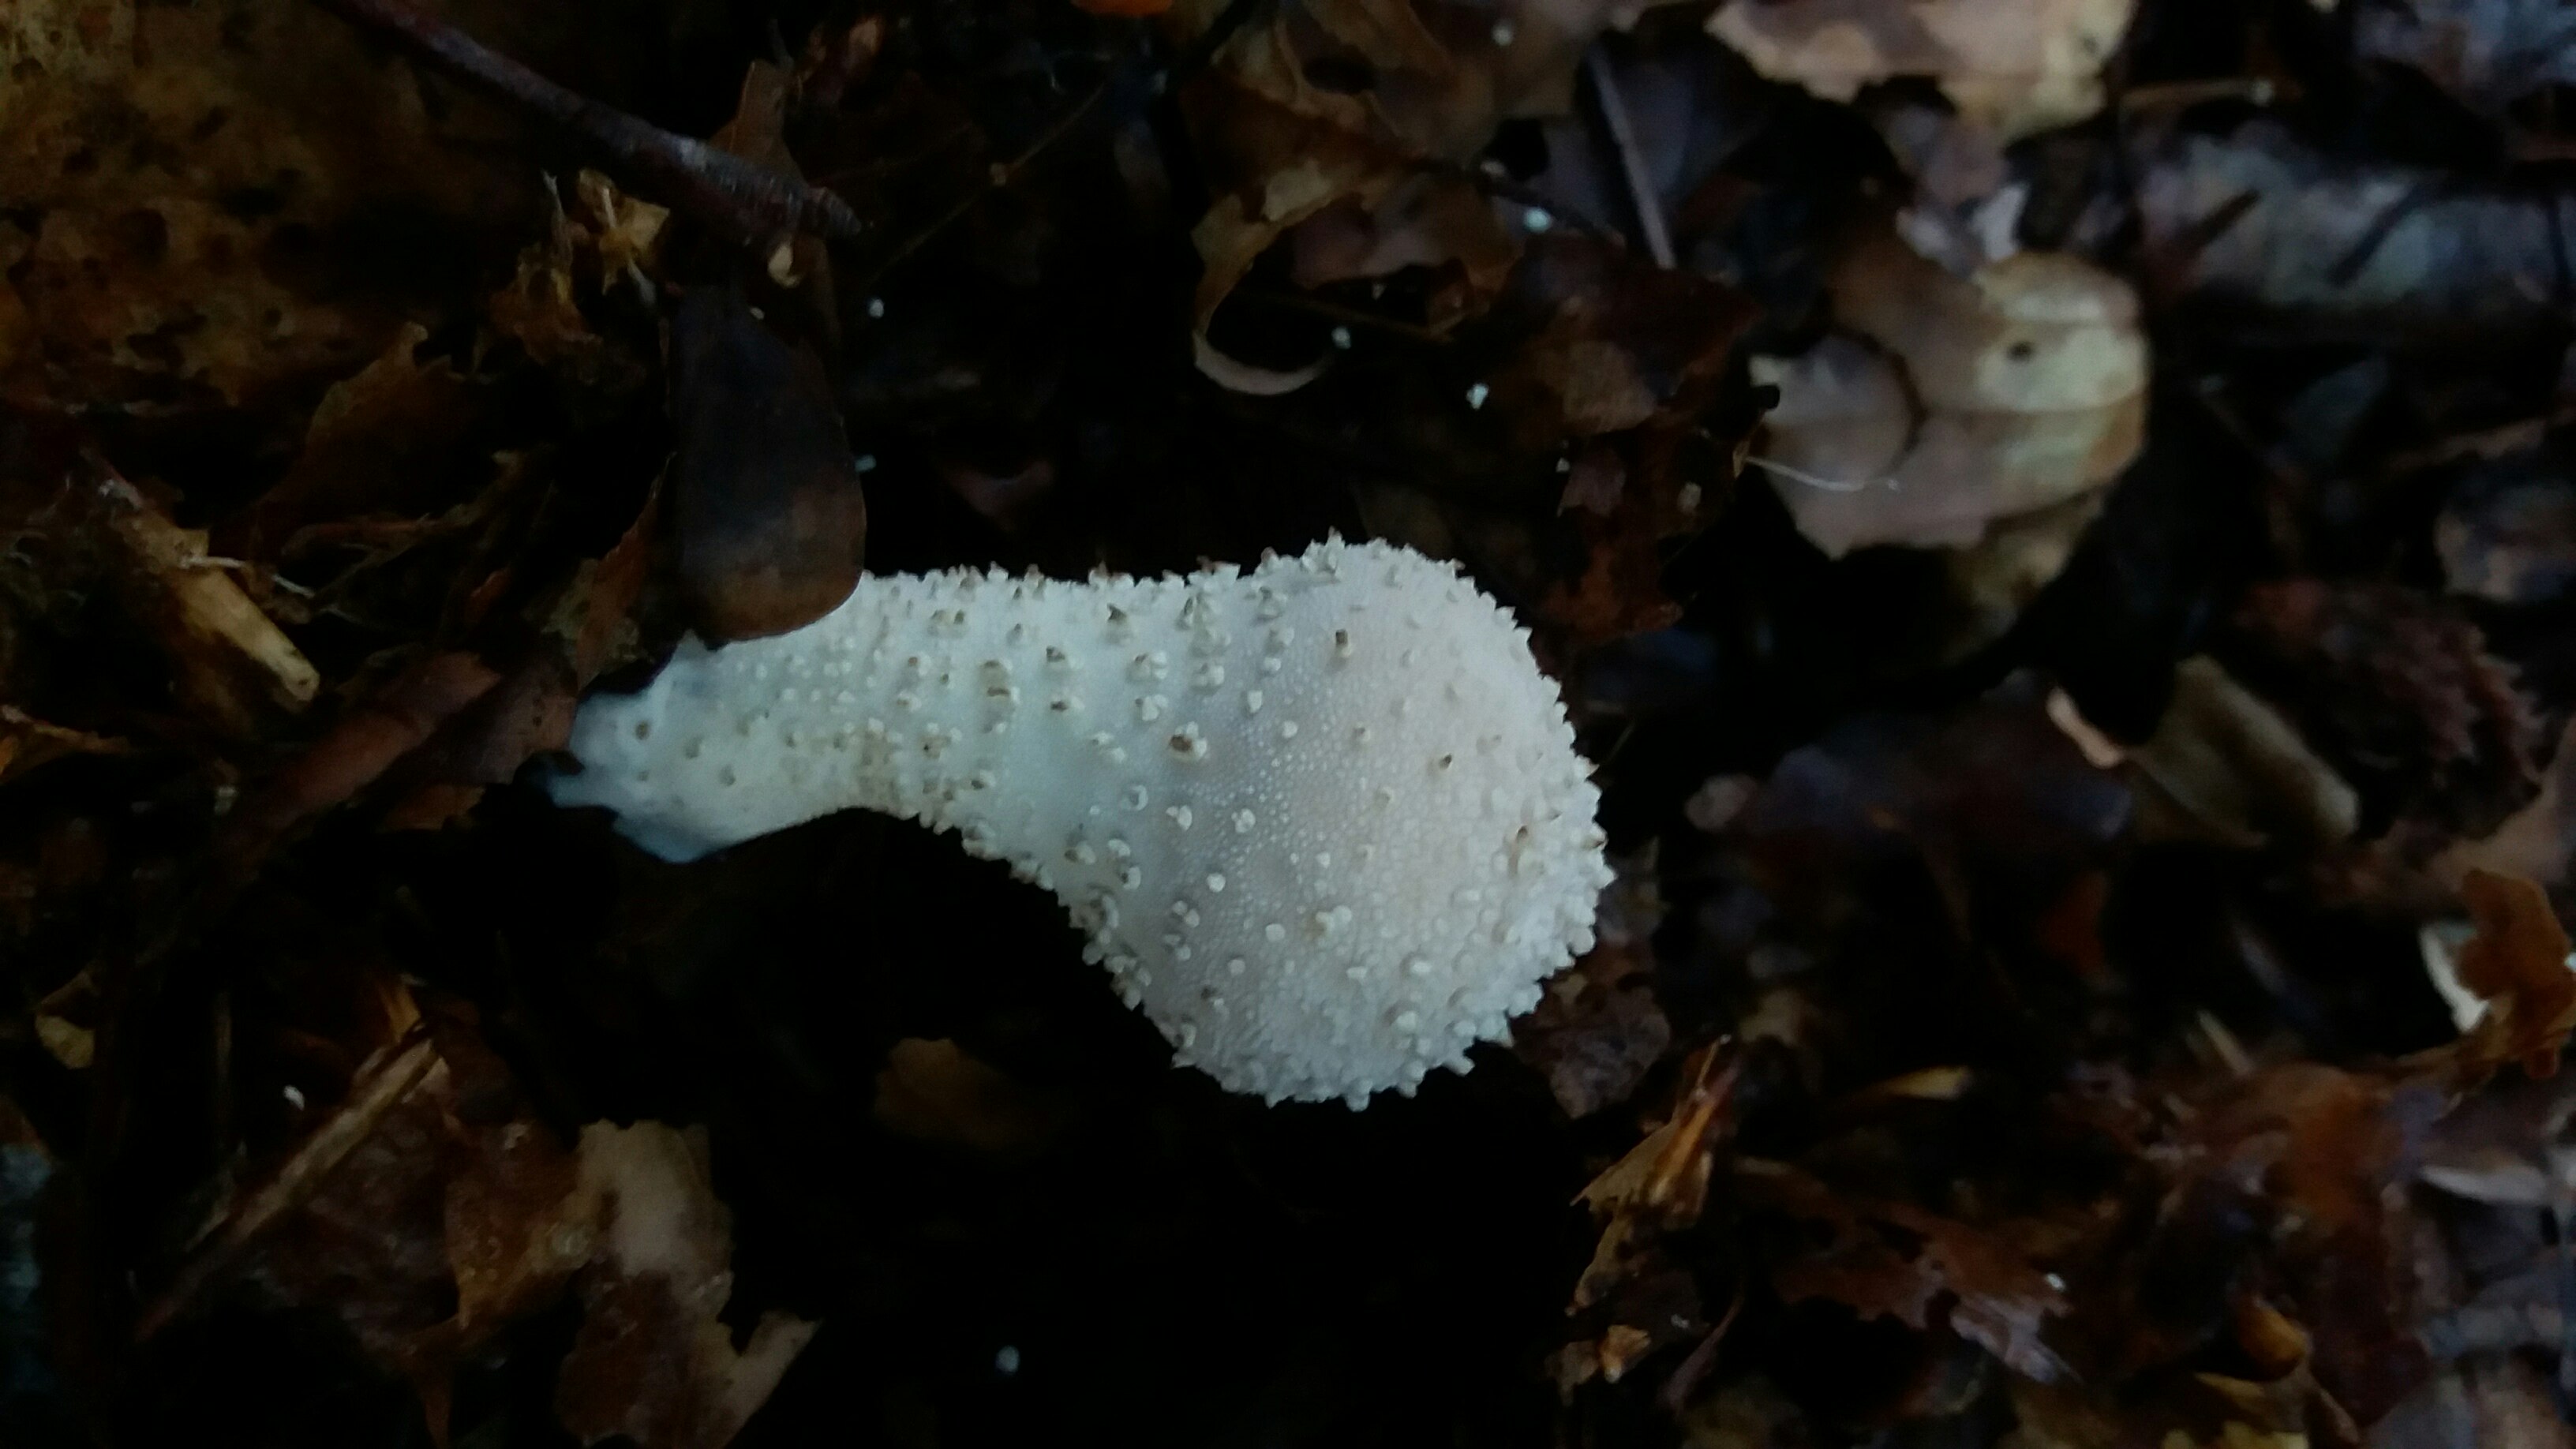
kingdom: Fungi
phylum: Basidiomycota
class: Agaricomycetes
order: Agaricales
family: Lycoperdaceae
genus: Lycoperdon
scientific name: Lycoperdon perlatum
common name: krystal-støvbold
